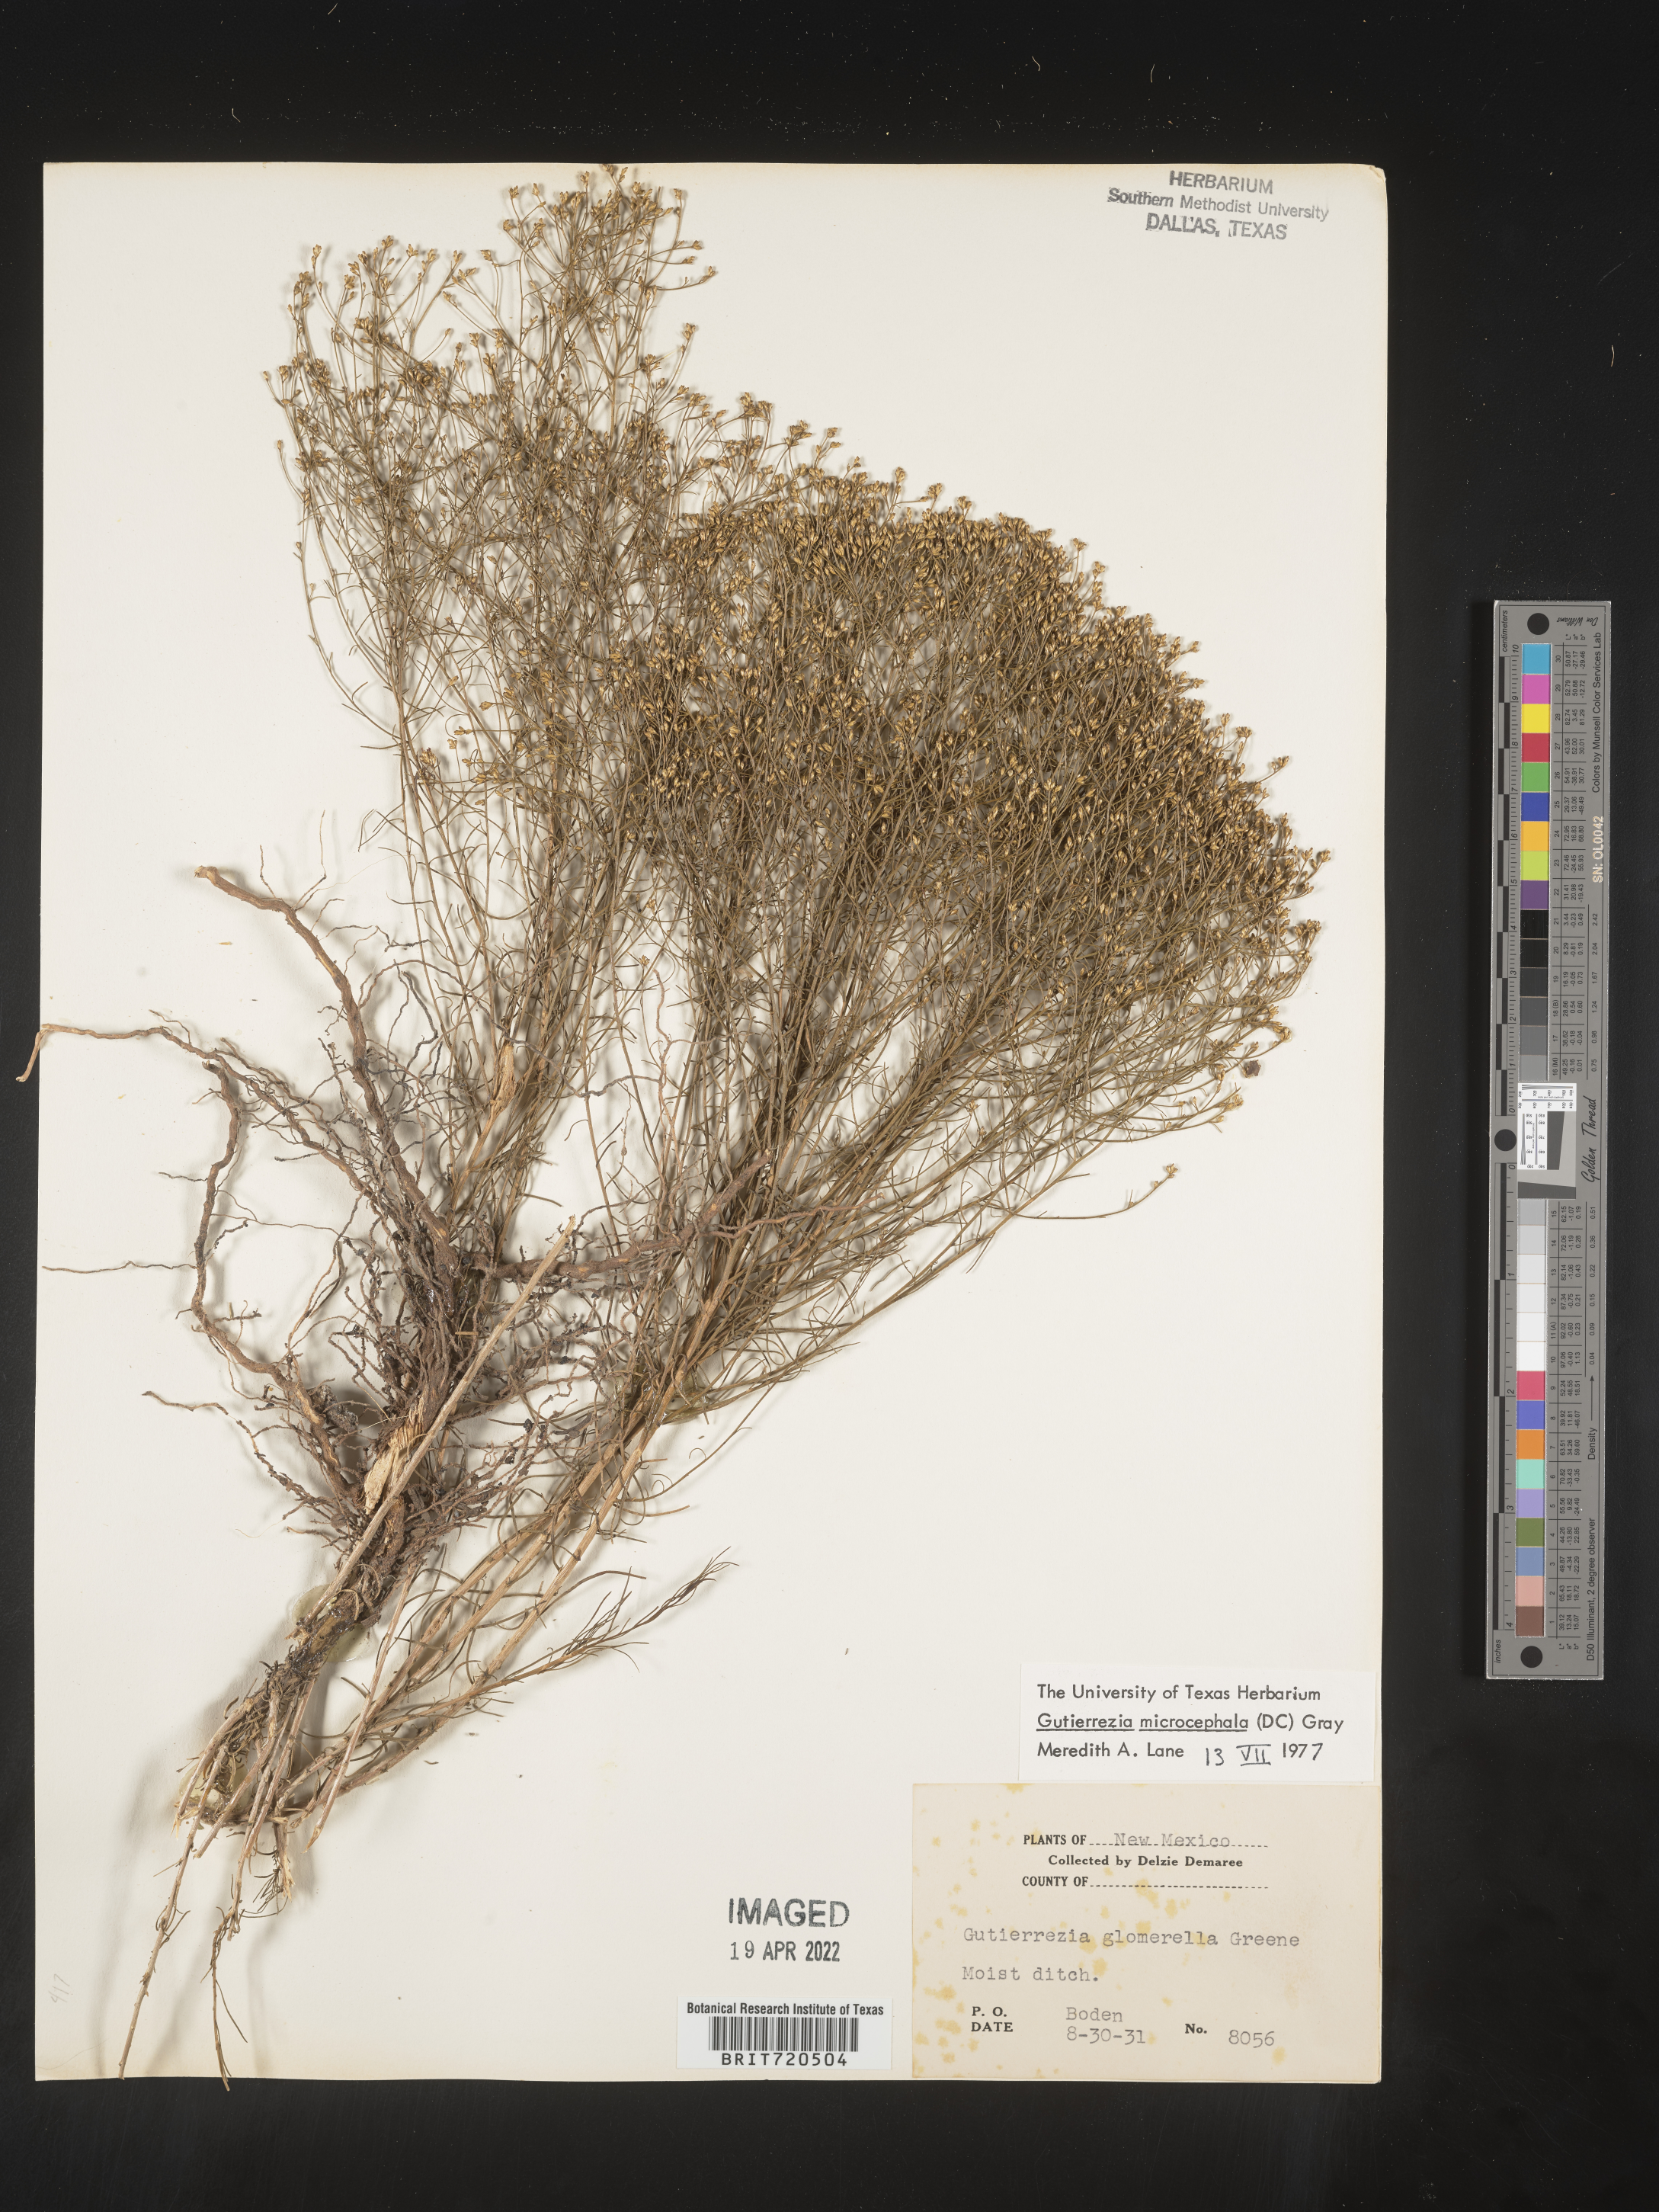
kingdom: Plantae
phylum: Tracheophyta
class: Magnoliopsida
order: Asterales
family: Asteraceae
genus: Gutierrezia
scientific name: Gutierrezia microcephala
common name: Thread snakeweed
